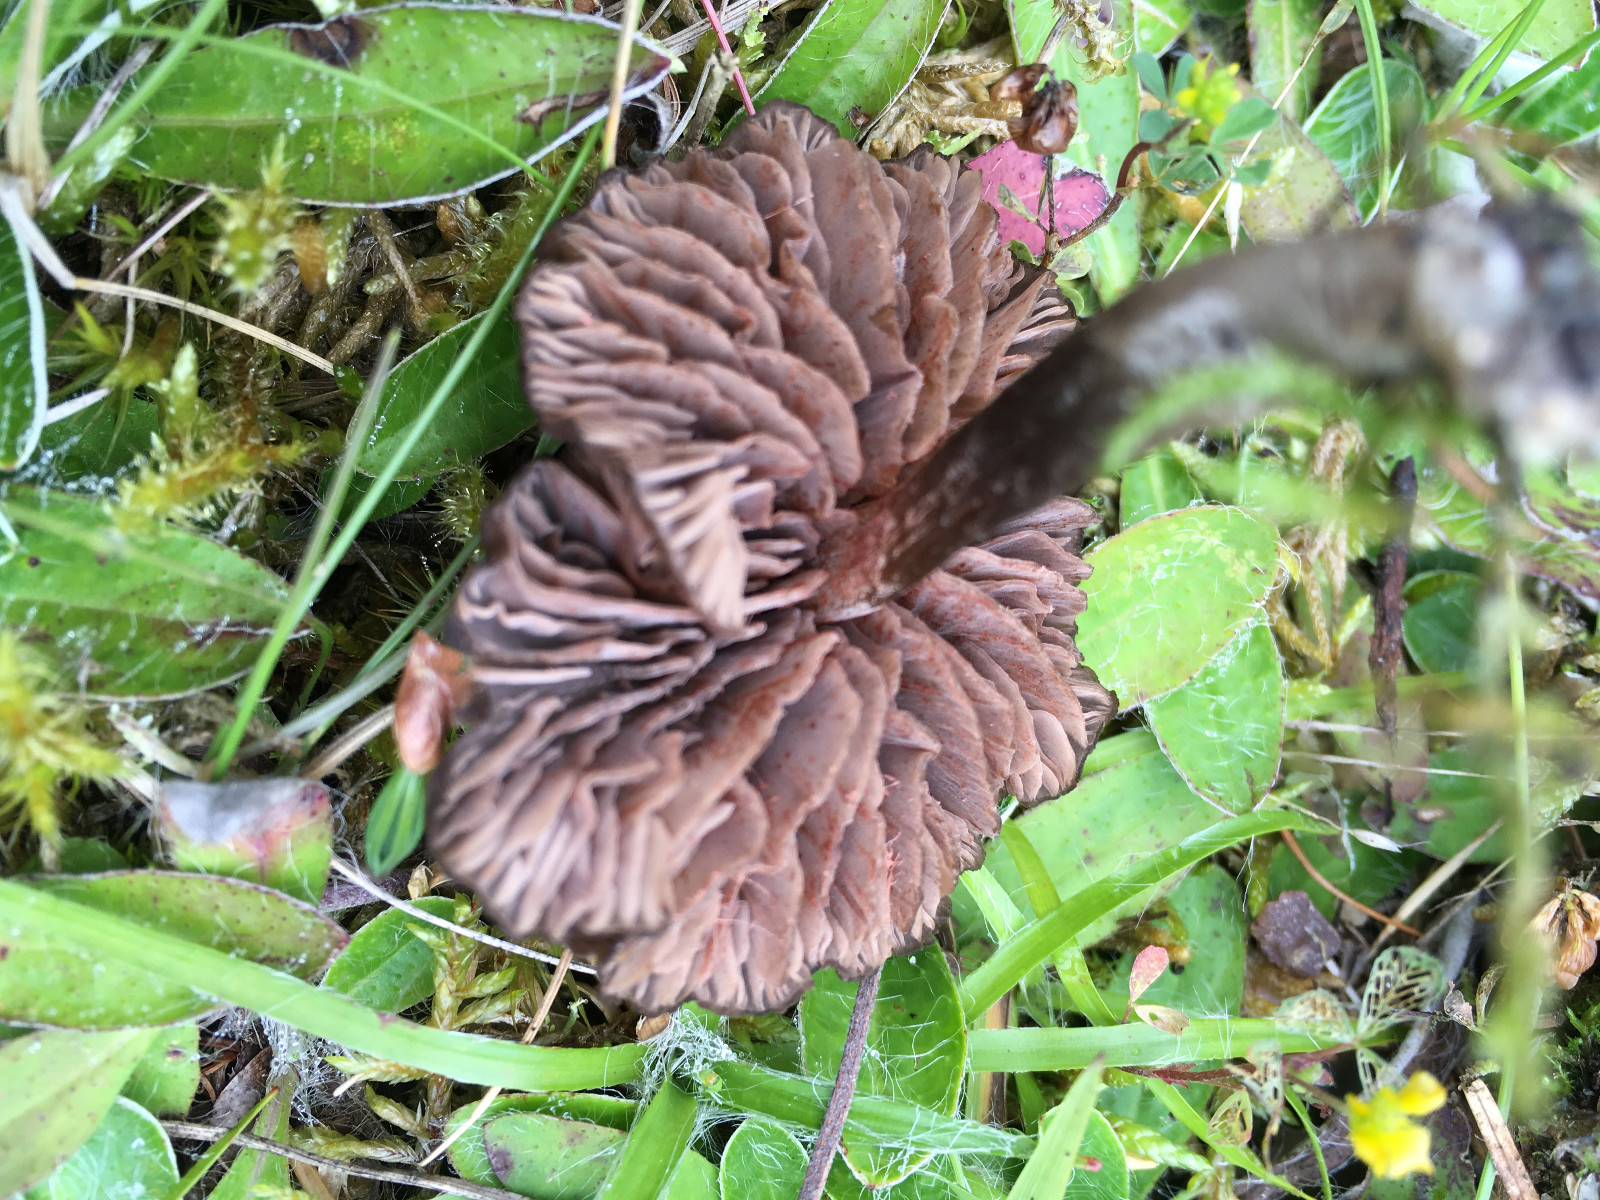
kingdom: Fungi
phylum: Basidiomycota
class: Agaricomycetes
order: Agaricales
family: Entolomataceae
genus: Entoloma
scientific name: Entoloma
